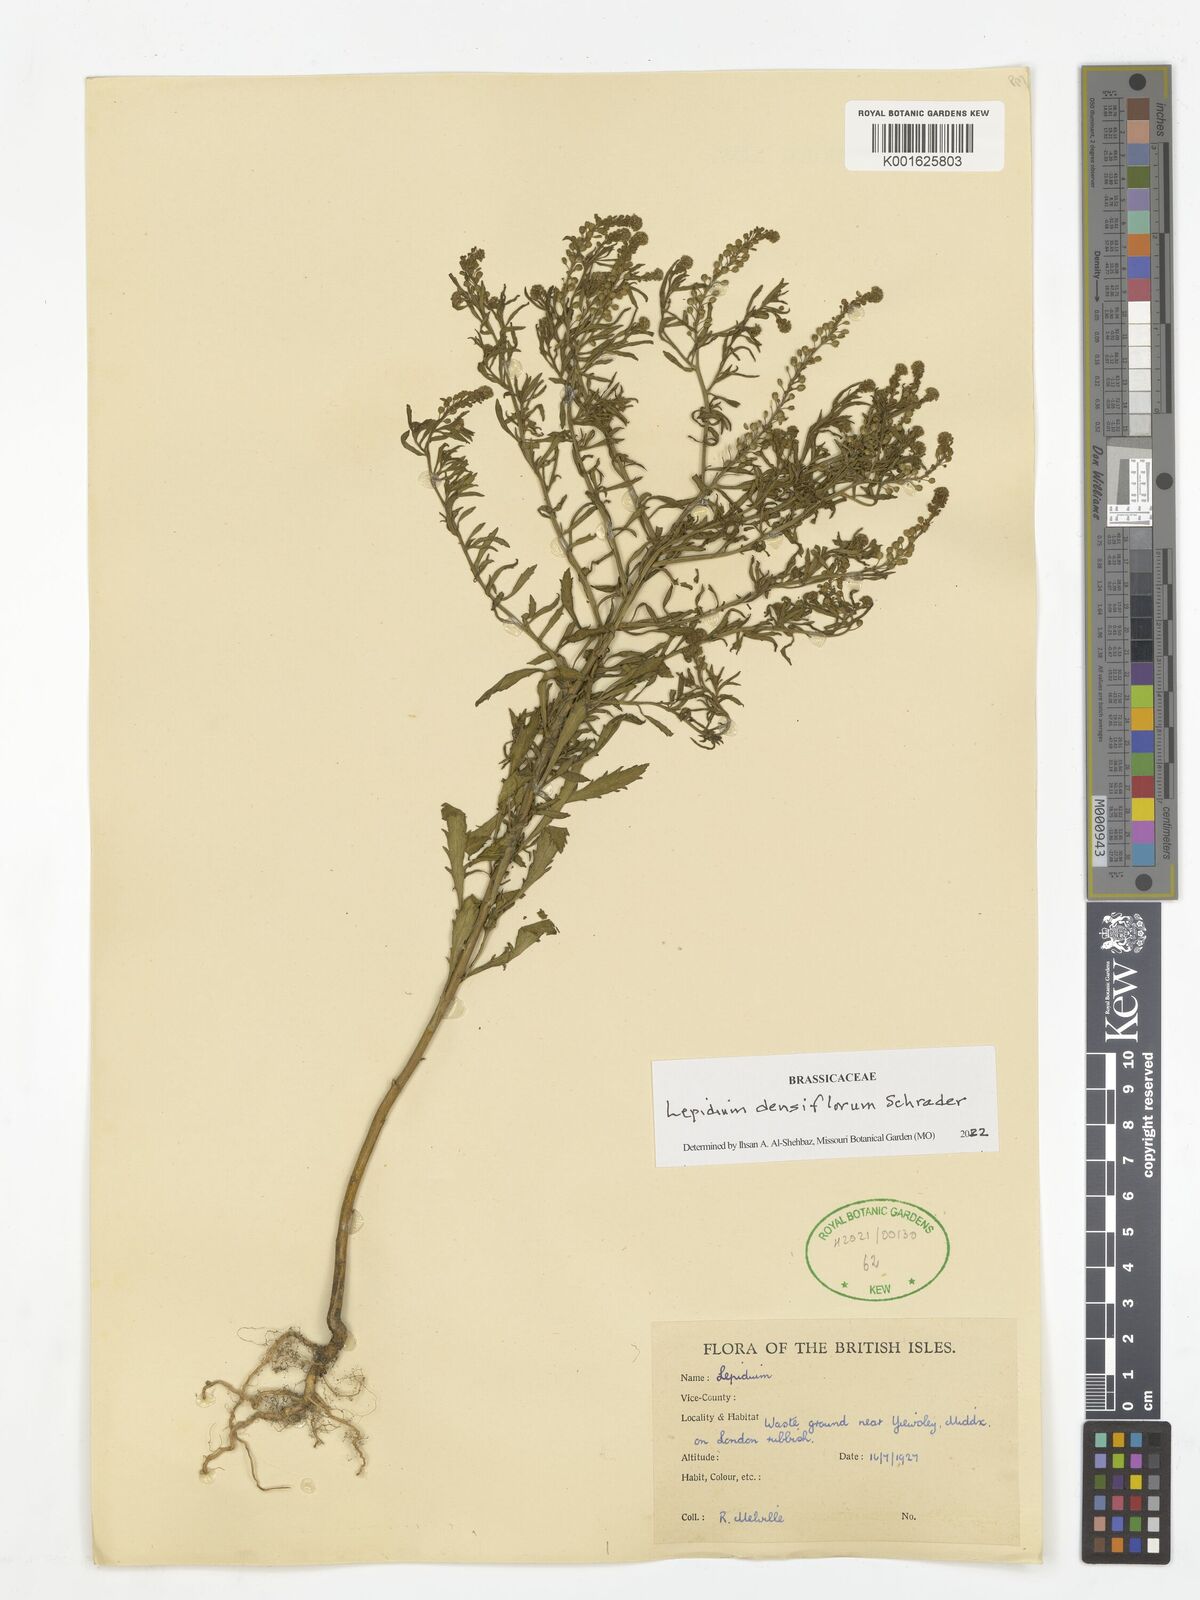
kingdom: Plantae
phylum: Tracheophyta
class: Magnoliopsida
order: Brassicales
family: Brassicaceae
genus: Lepidium
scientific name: Lepidium densiflorum
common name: Miner's pepperwort
